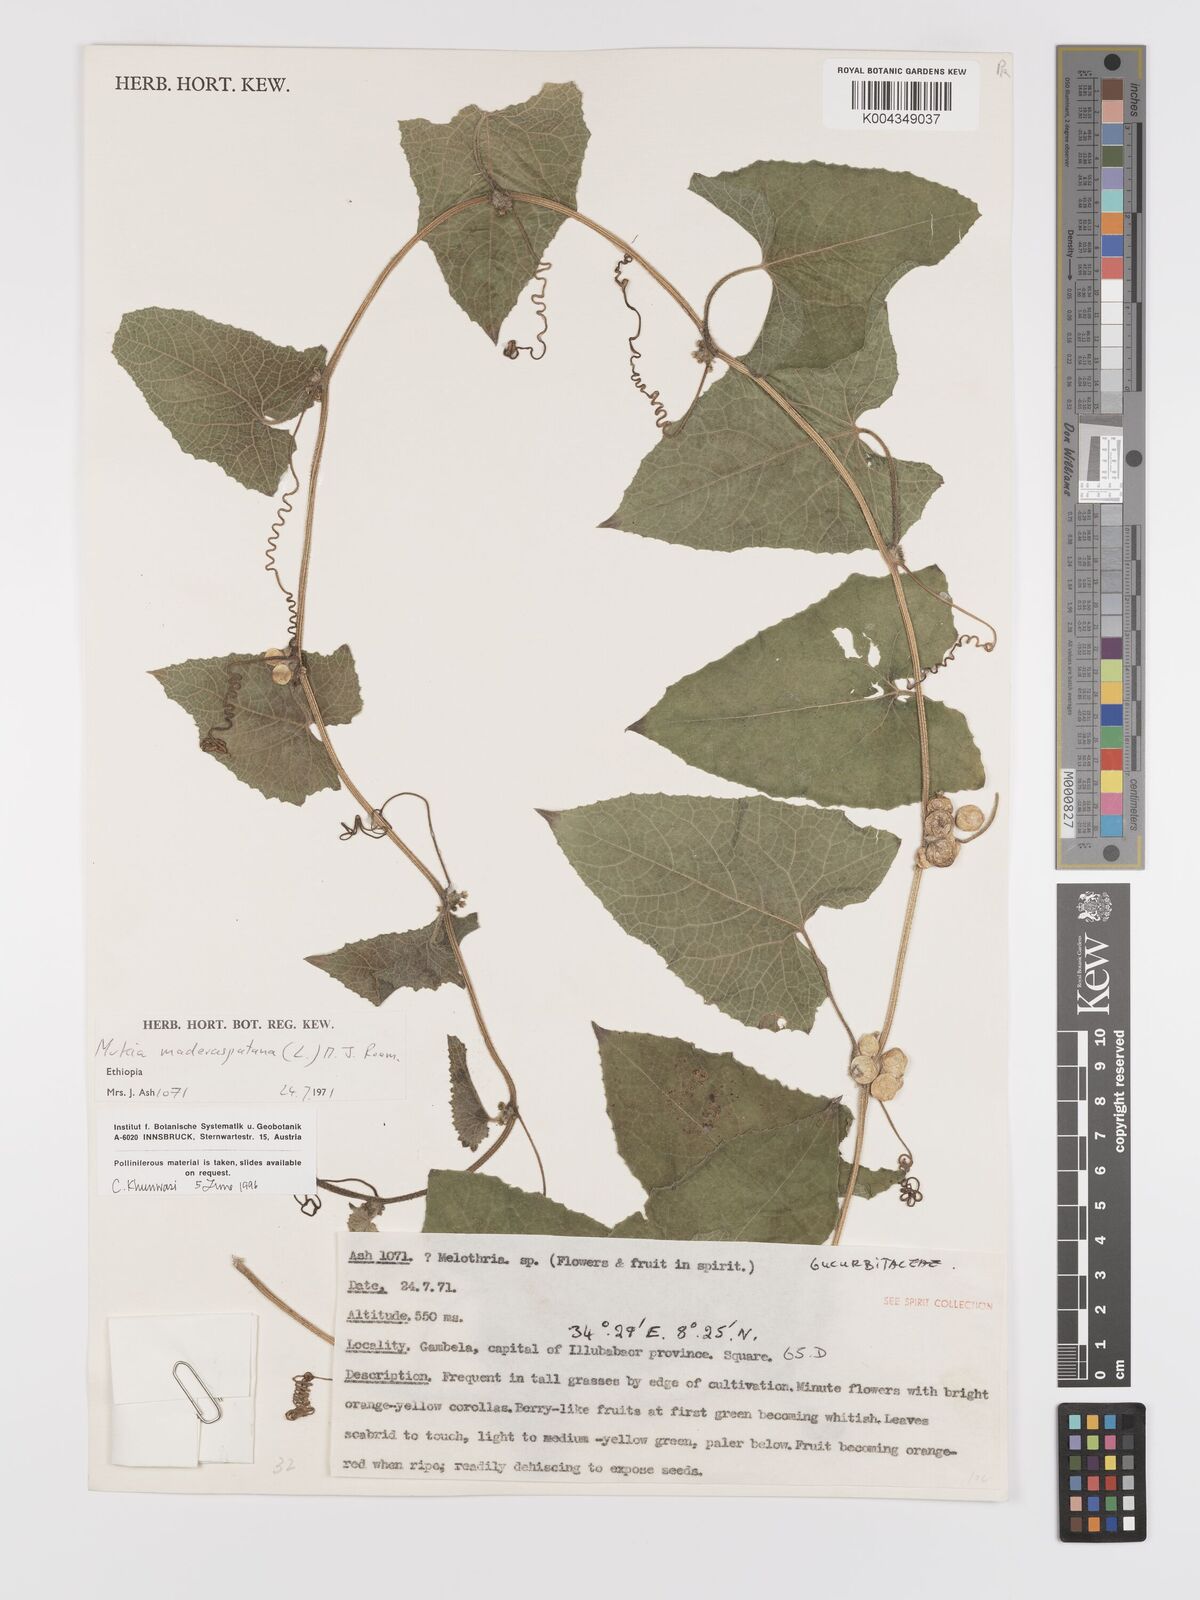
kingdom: Plantae
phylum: Tracheophyta
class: Magnoliopsida
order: Cucurbitales
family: Cucurbitaceae
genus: Cucumis
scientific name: Cucumis maderaspatanus
